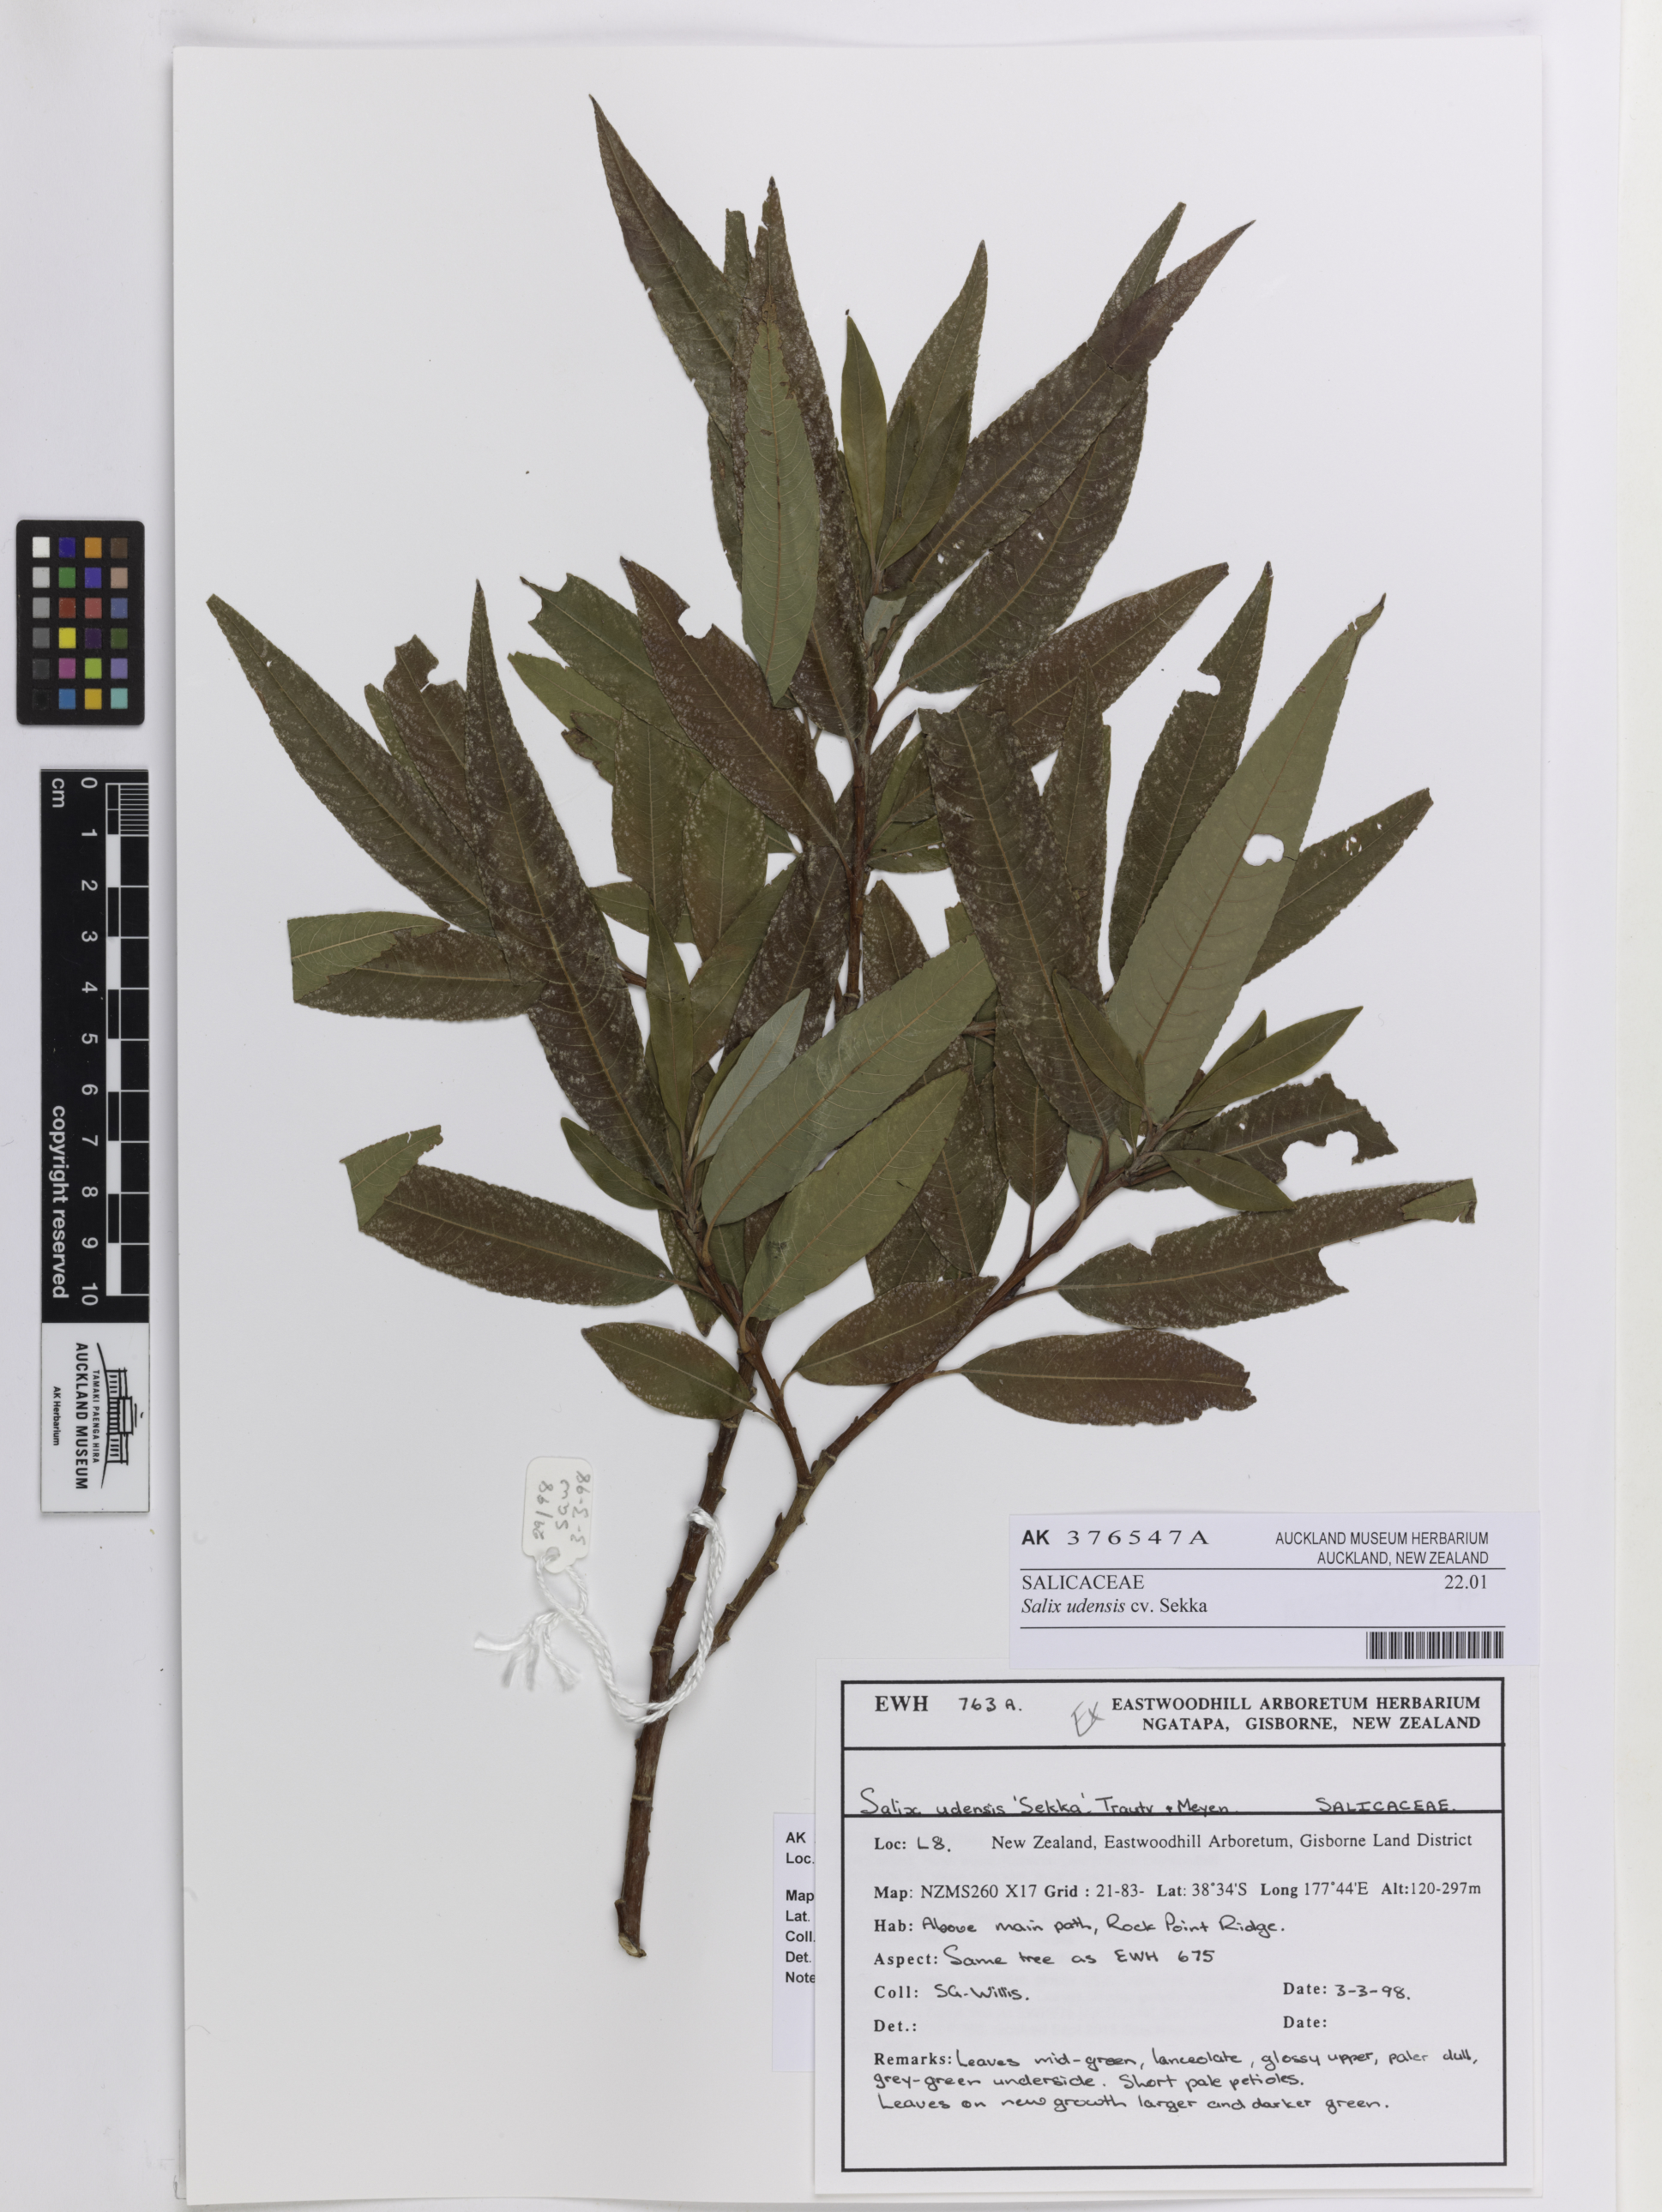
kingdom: Plantae
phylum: Tracheophyta
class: Magnoliopsida
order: Malpighiales
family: Salicaceae
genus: Salix
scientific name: Salix udensis
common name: Sachalin willow
